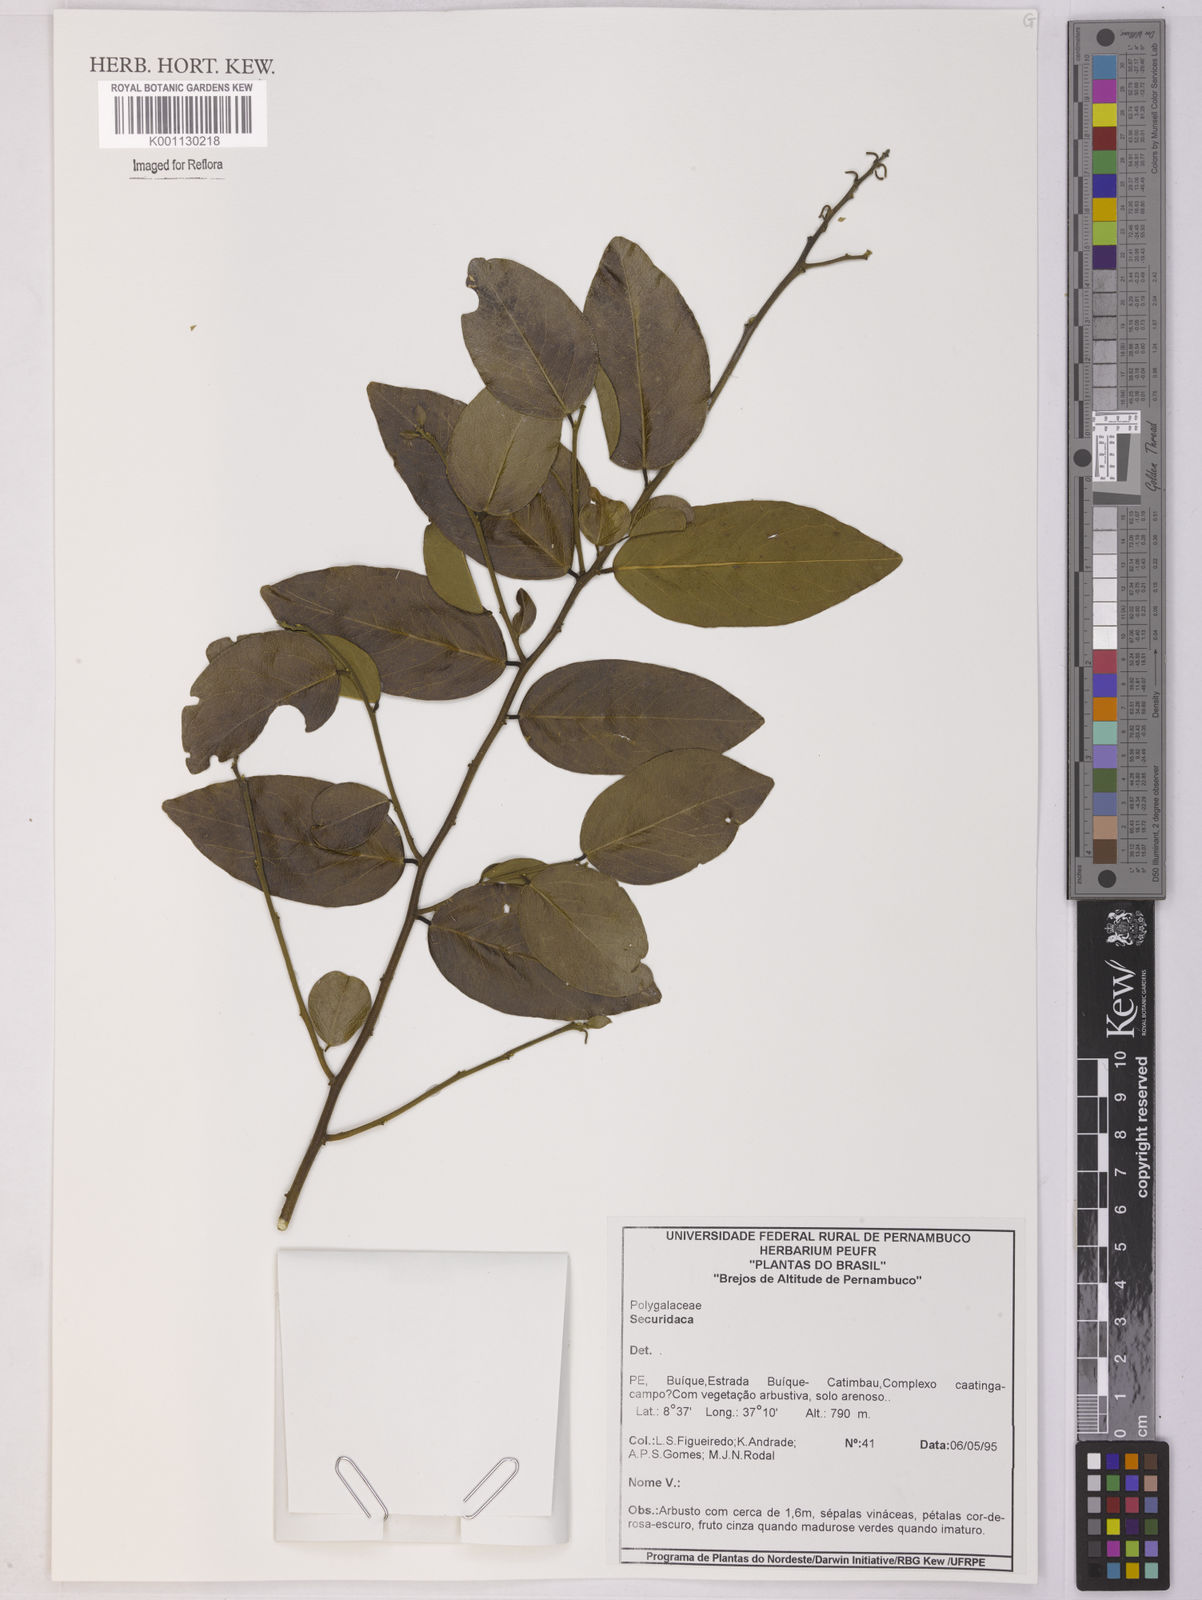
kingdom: Plantae
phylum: Tracheophyta
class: Magnoliopsida
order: Fabales
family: Polygalaceae
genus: Securidaca
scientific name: Securidaca
